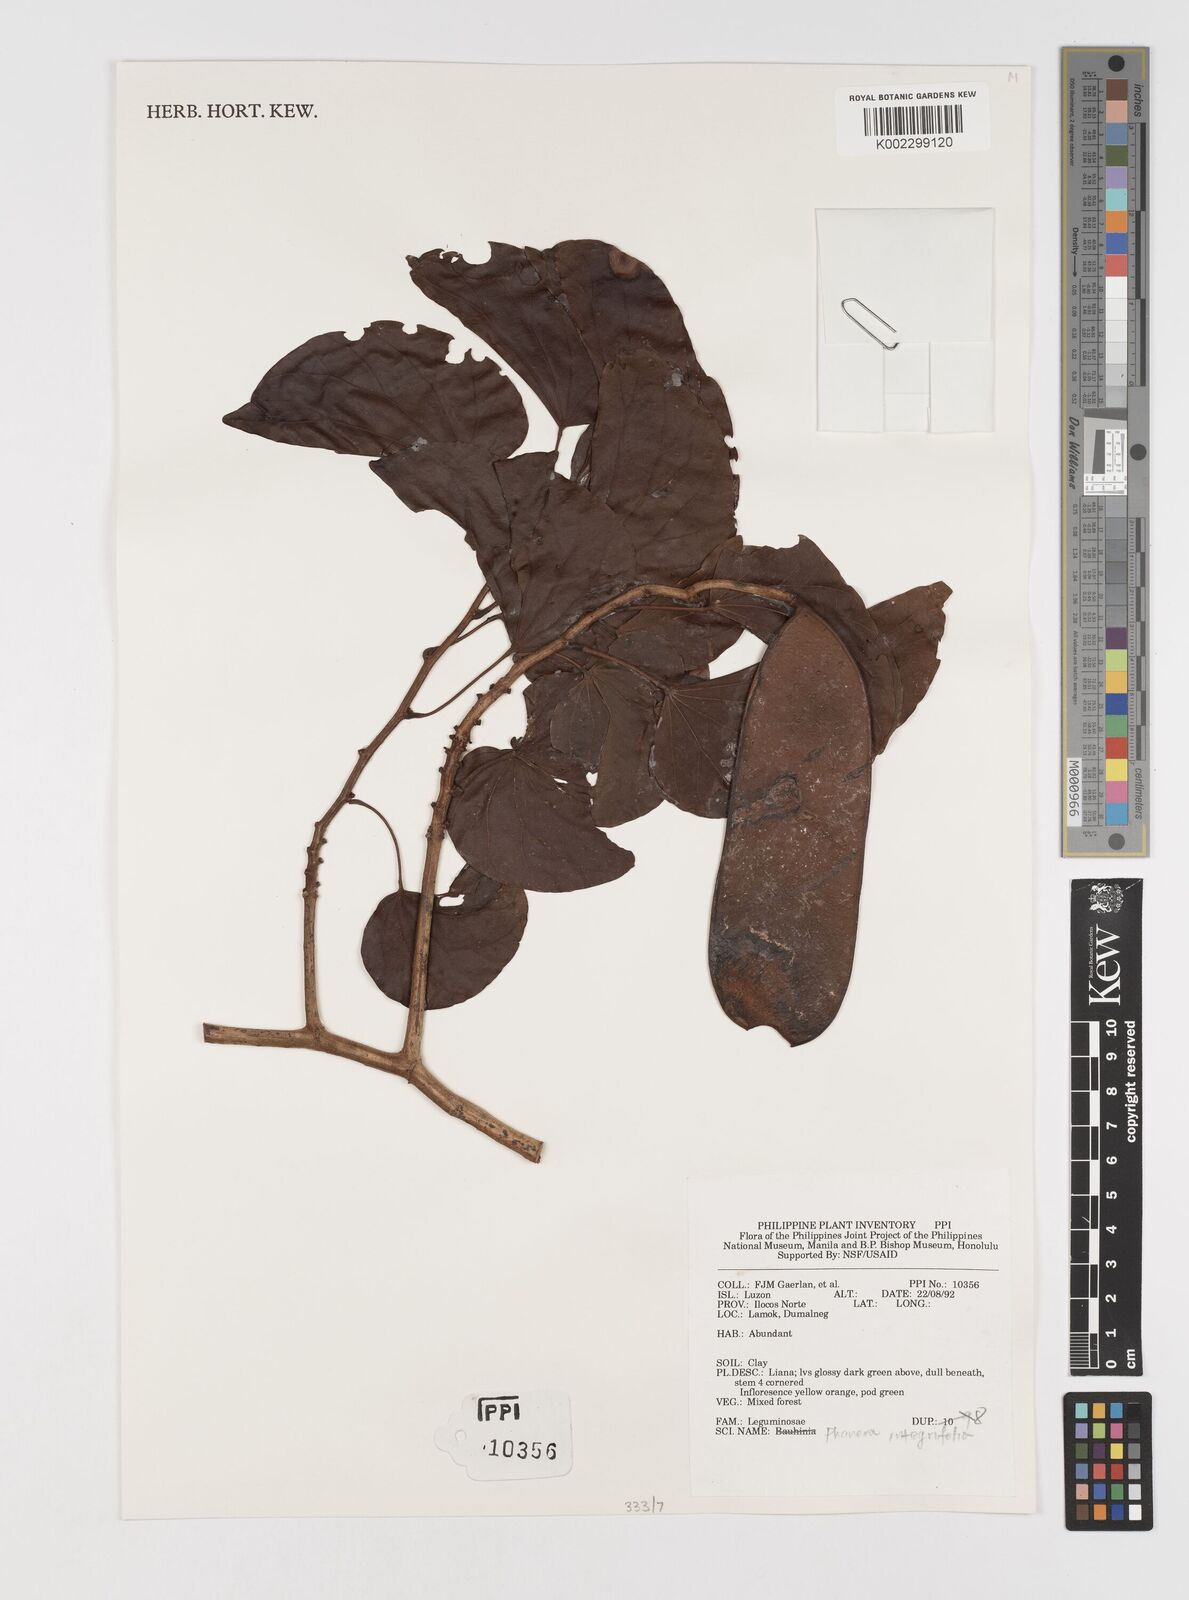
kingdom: Plantae
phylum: Tracheophyta
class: Magnoliopsida
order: Fabales
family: Fabaceae
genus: Phanera
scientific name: Phanera integrifolia
